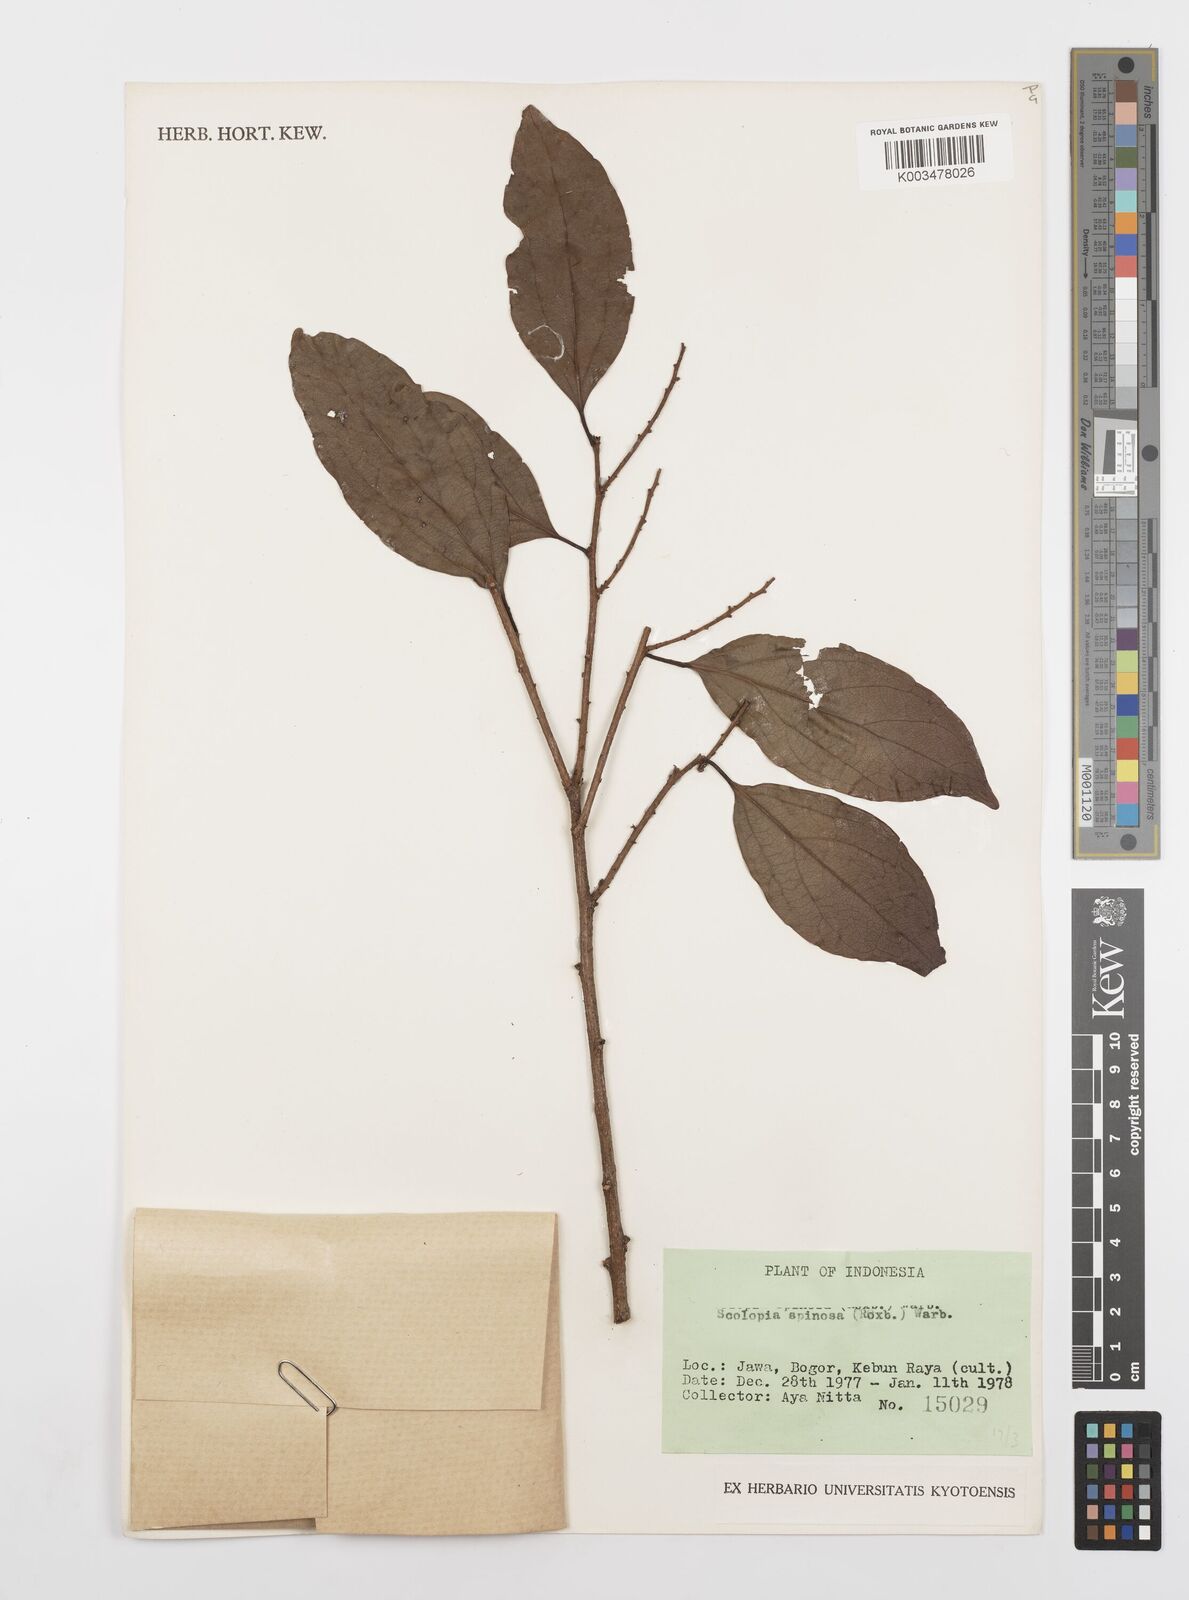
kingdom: Plantae
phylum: Tracheophyta
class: Magnoliopsida
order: Malpighiales
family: Salicaceae
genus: Scolopia
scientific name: Scolopia spinosa
